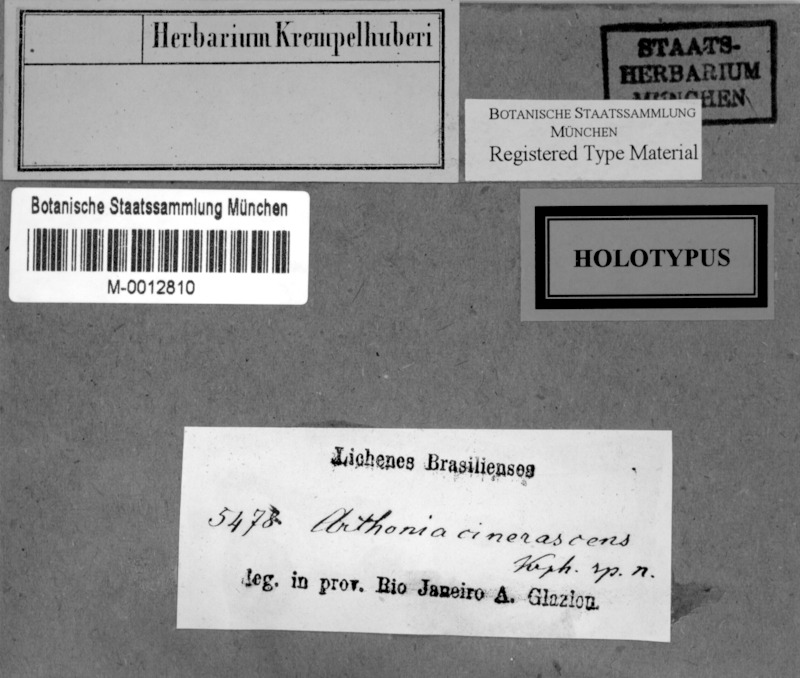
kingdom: Fungi
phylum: Ascomycota
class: Arthoniomycetes
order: Arthoniales
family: Arthoniaceae
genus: Arthothelium
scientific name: Arthothelium
